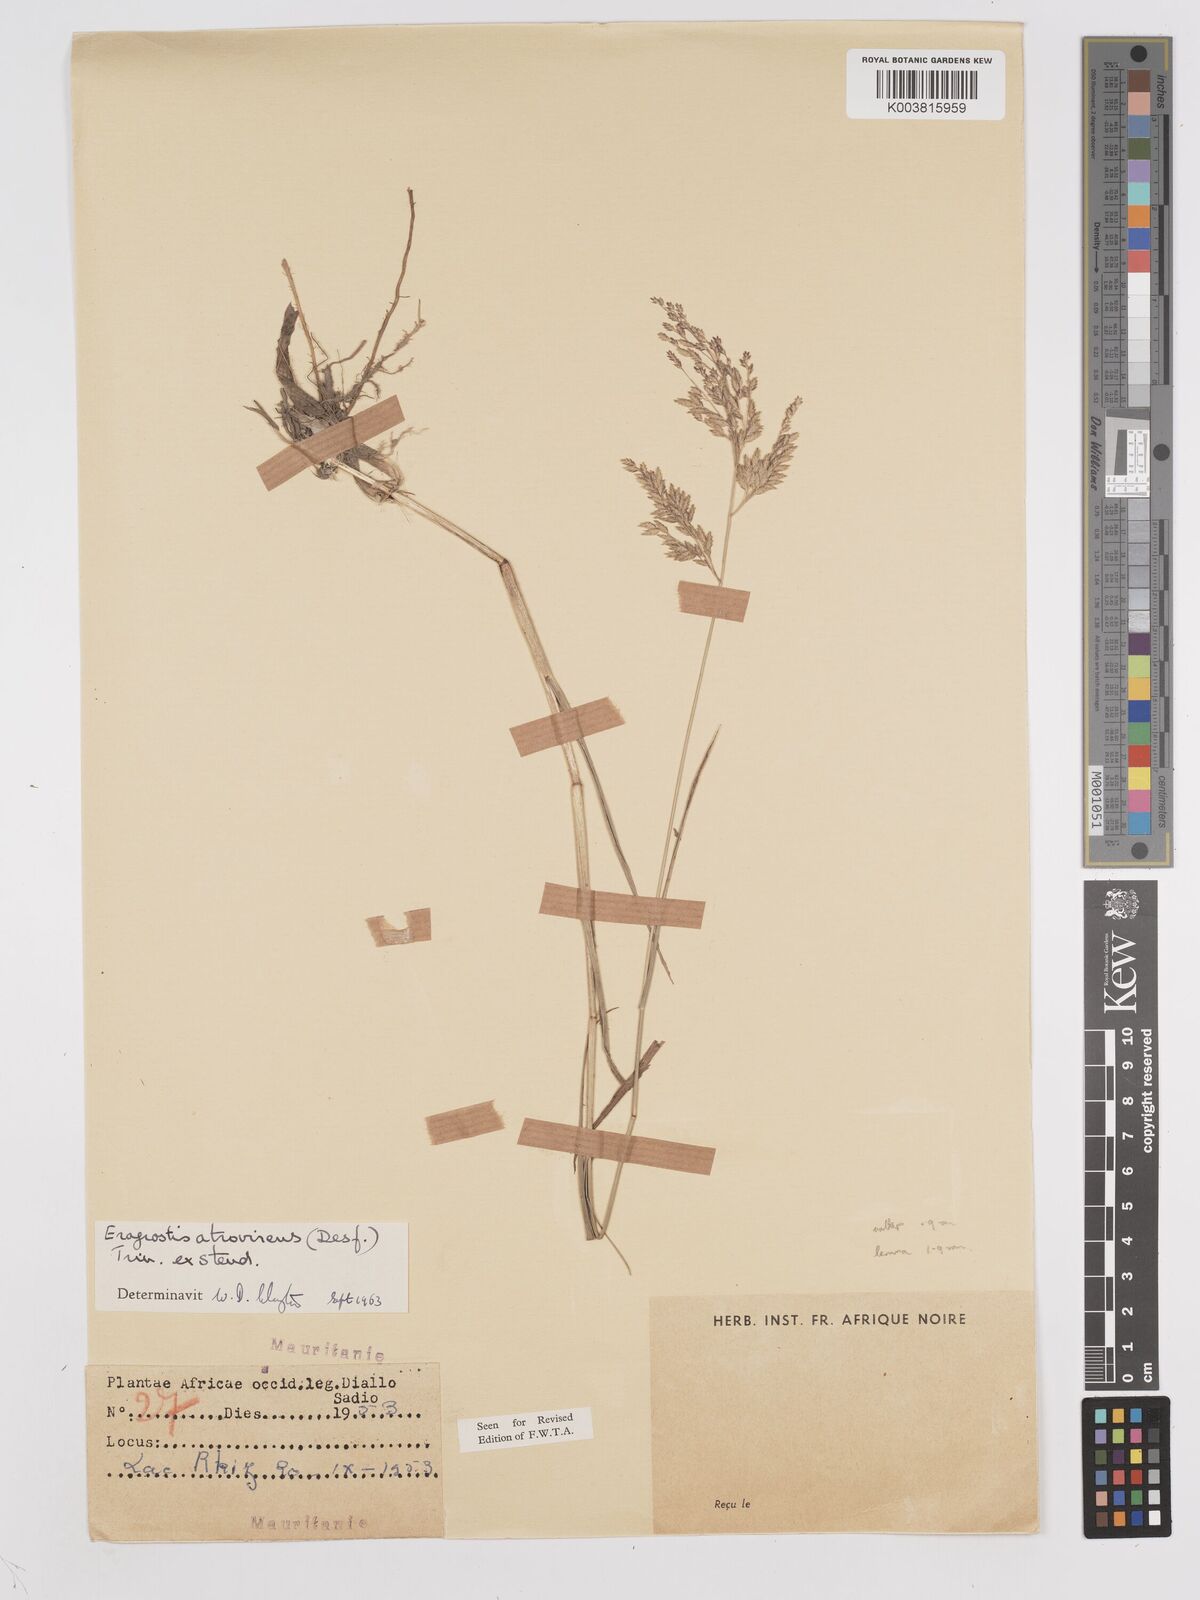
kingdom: Plantae
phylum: Tracheophyta
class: Liliopsida
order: Poales
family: Poaceae
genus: Eragrostis
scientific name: Eragrostis atrovirens
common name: Thalia lovegrass
